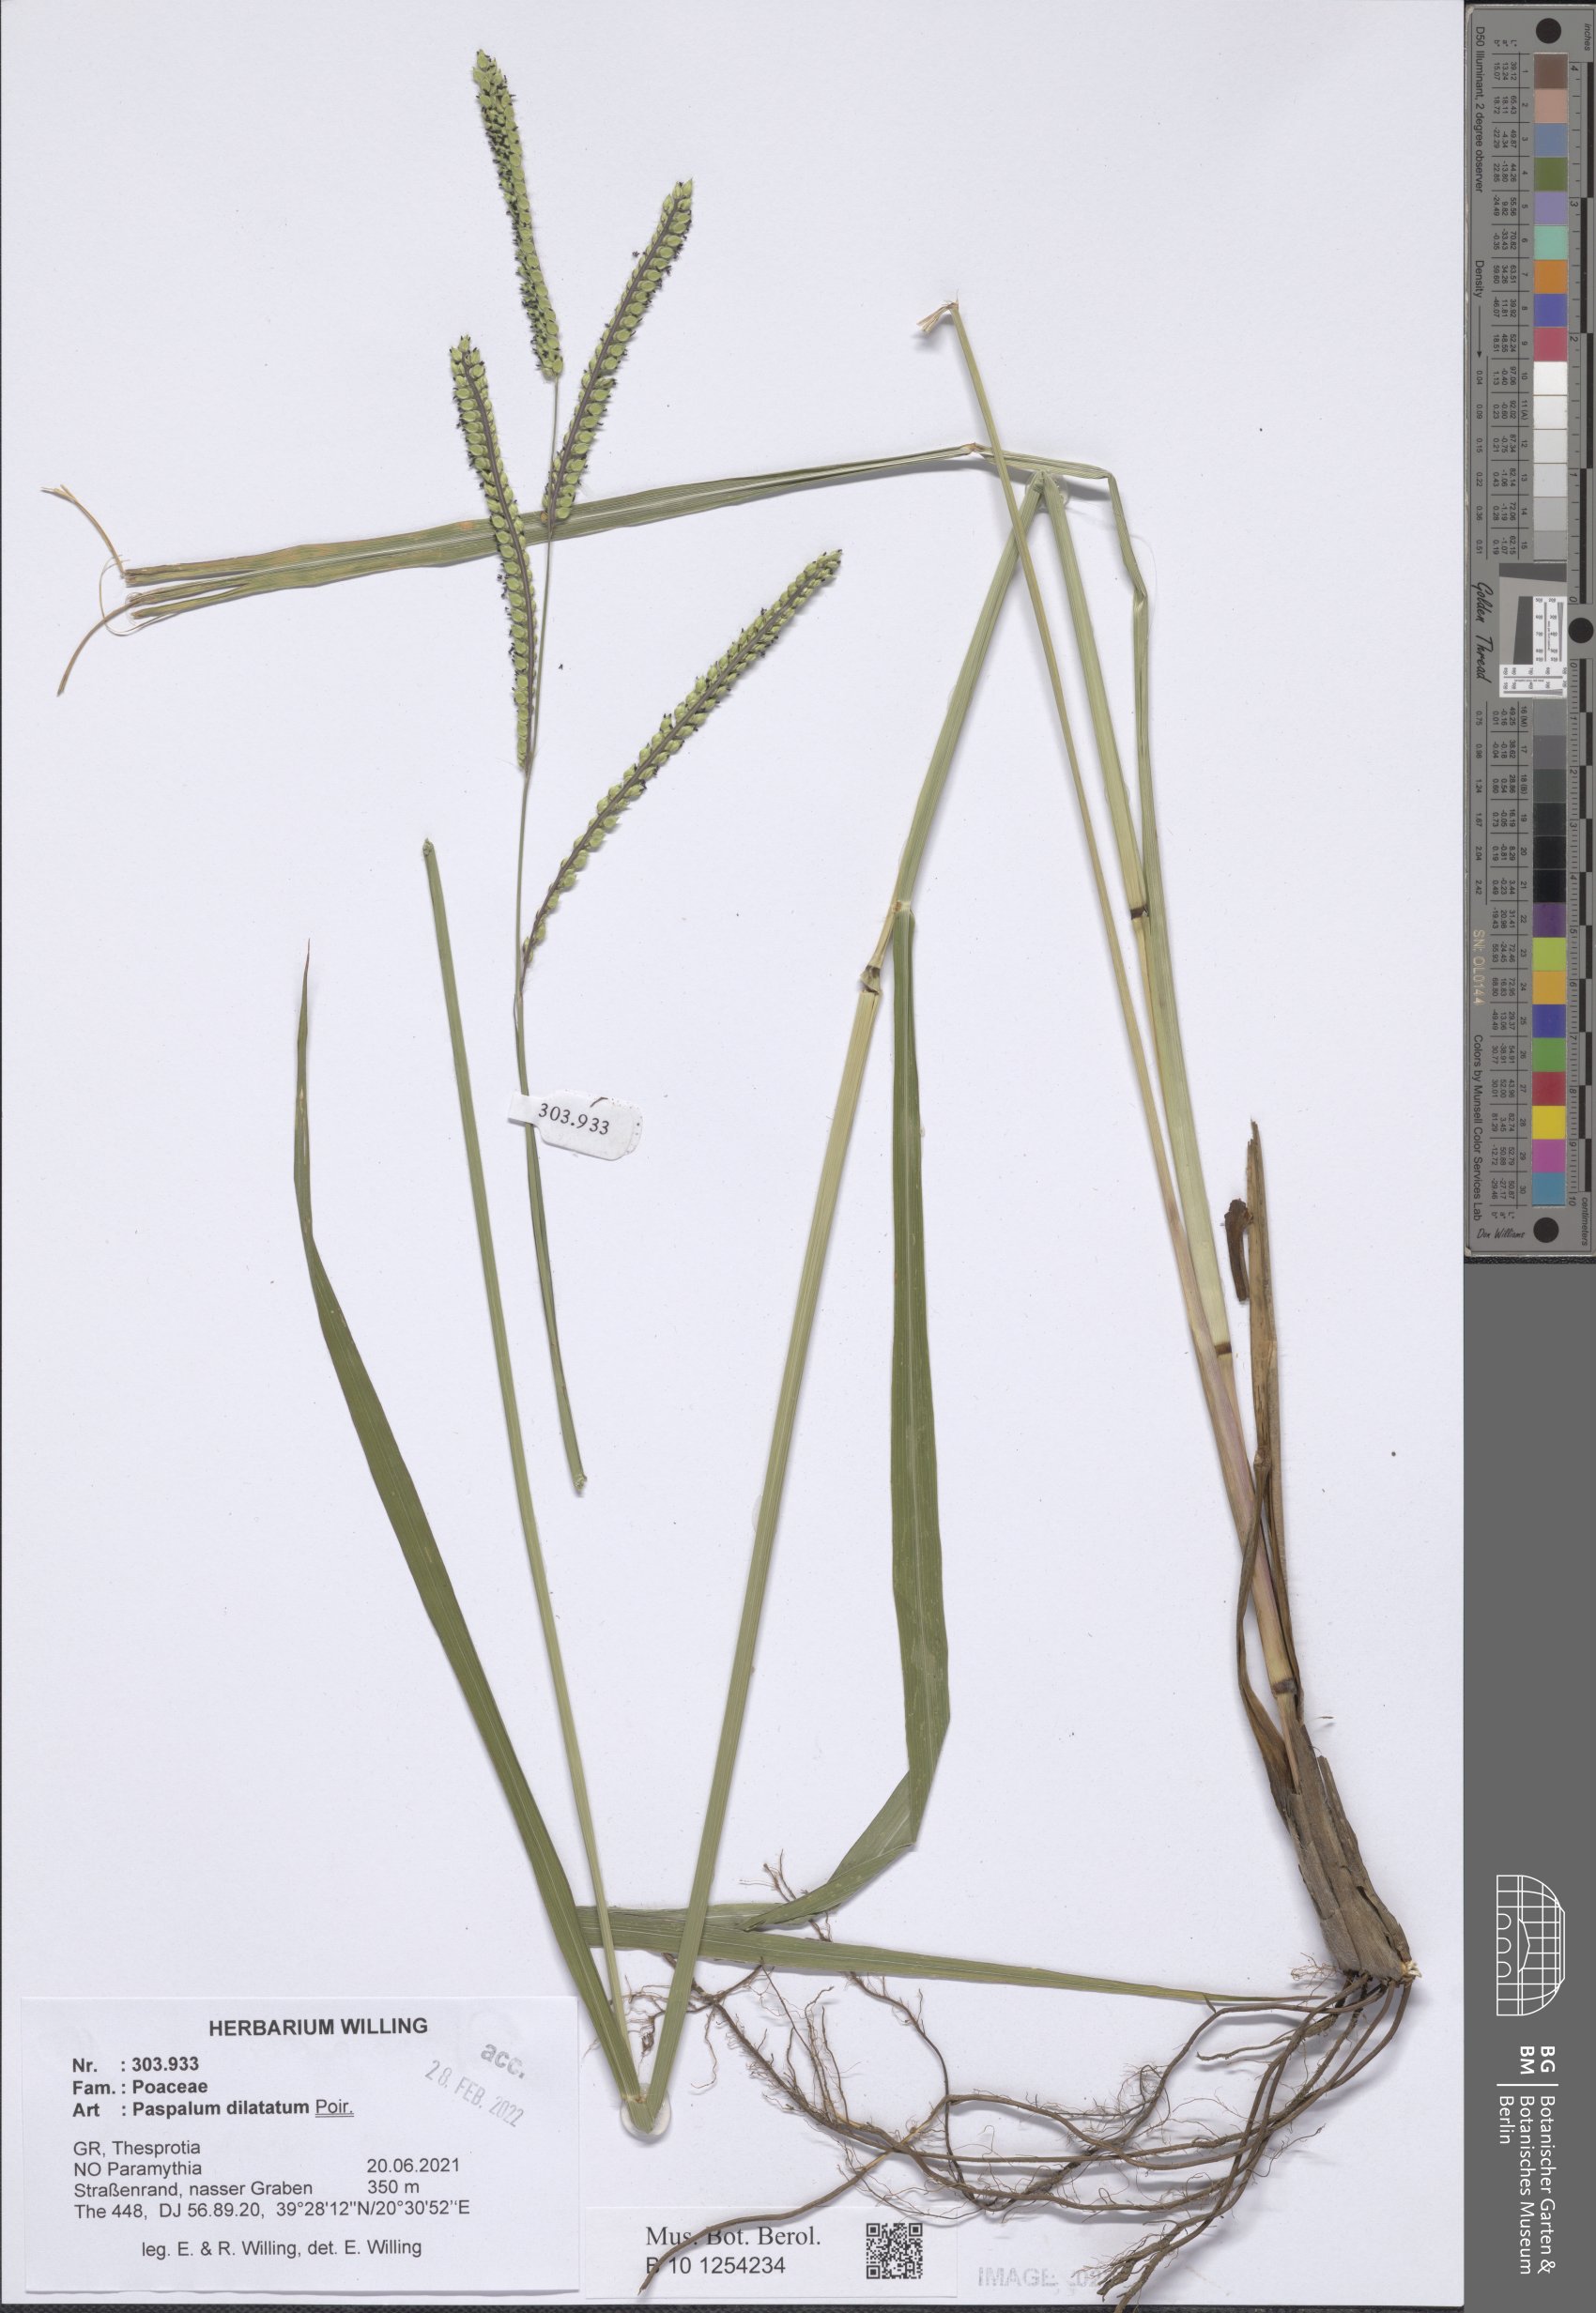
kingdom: Plantae
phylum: Tracheophyta
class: Liliopsida
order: Poales
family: Poaceae
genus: Paspalum
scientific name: Paspalum dilatatum
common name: Dallisgrass
